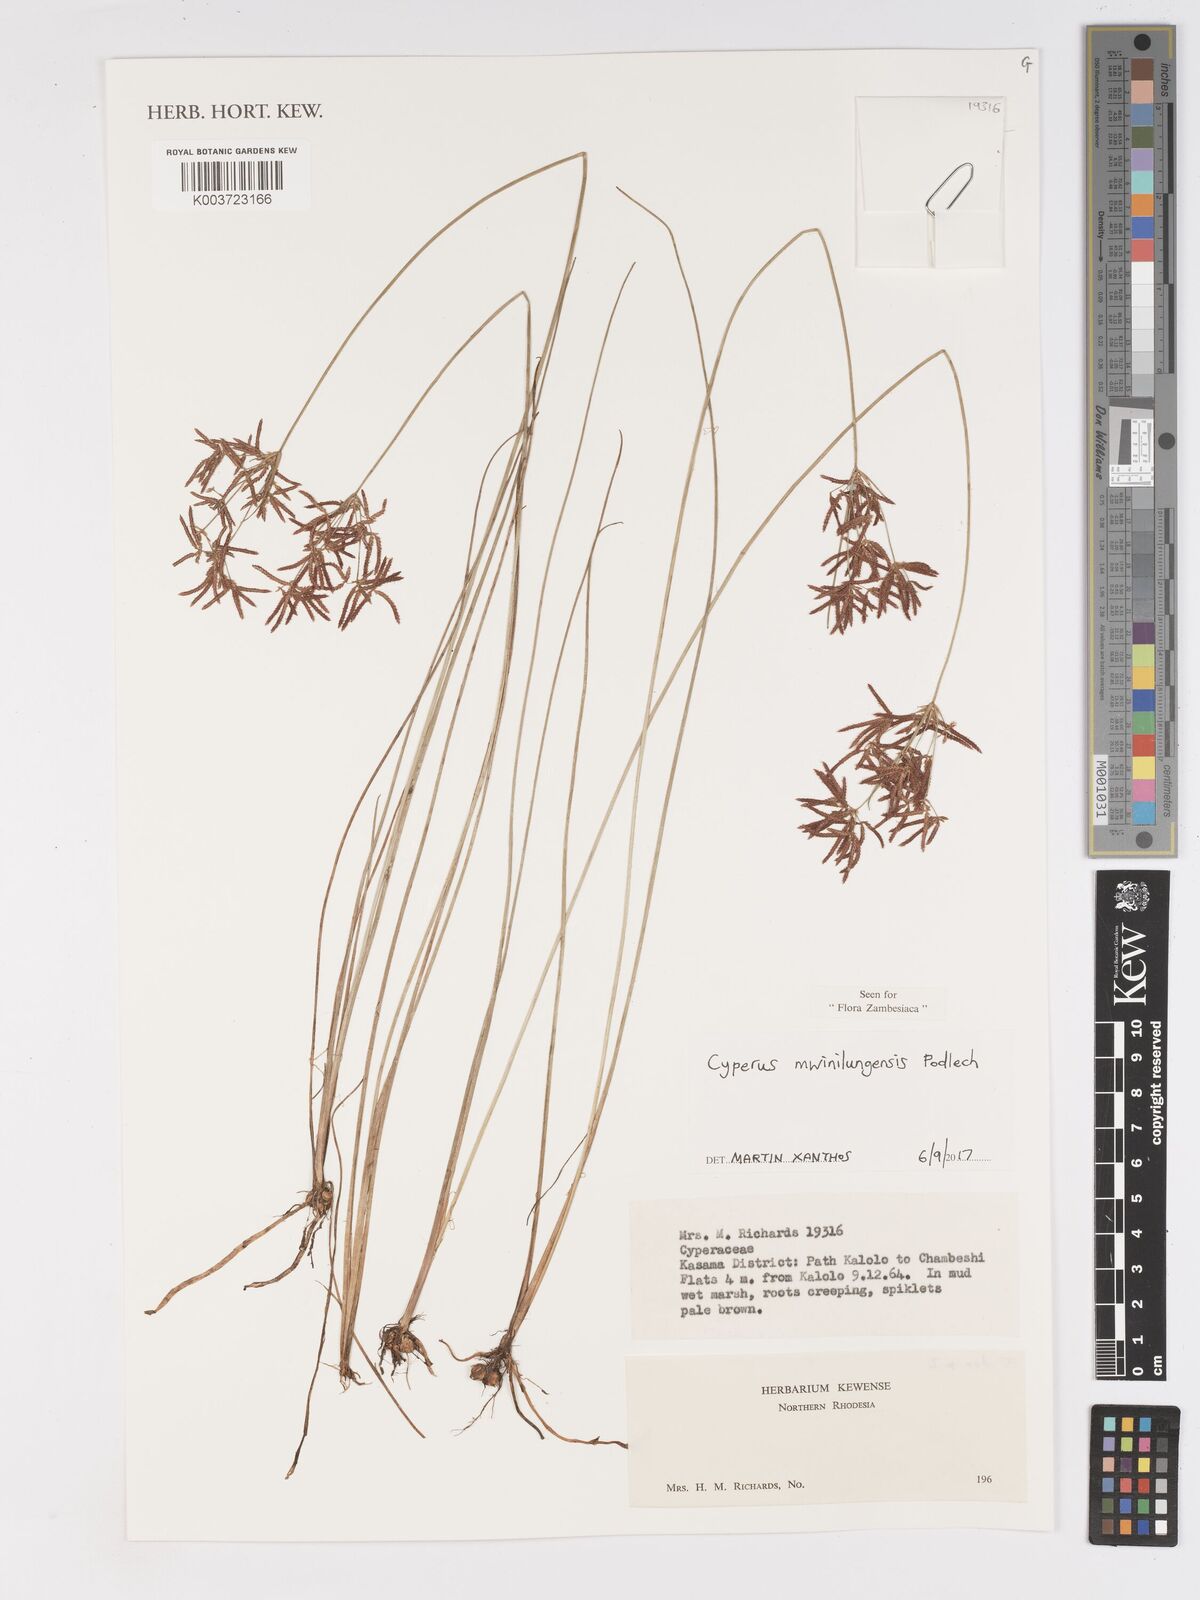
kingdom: Plantae
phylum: Tracheophyta
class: Liliopsida
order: Poales
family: Cyperaceae
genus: Cyperus
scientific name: Cyperus mwinilungensis
